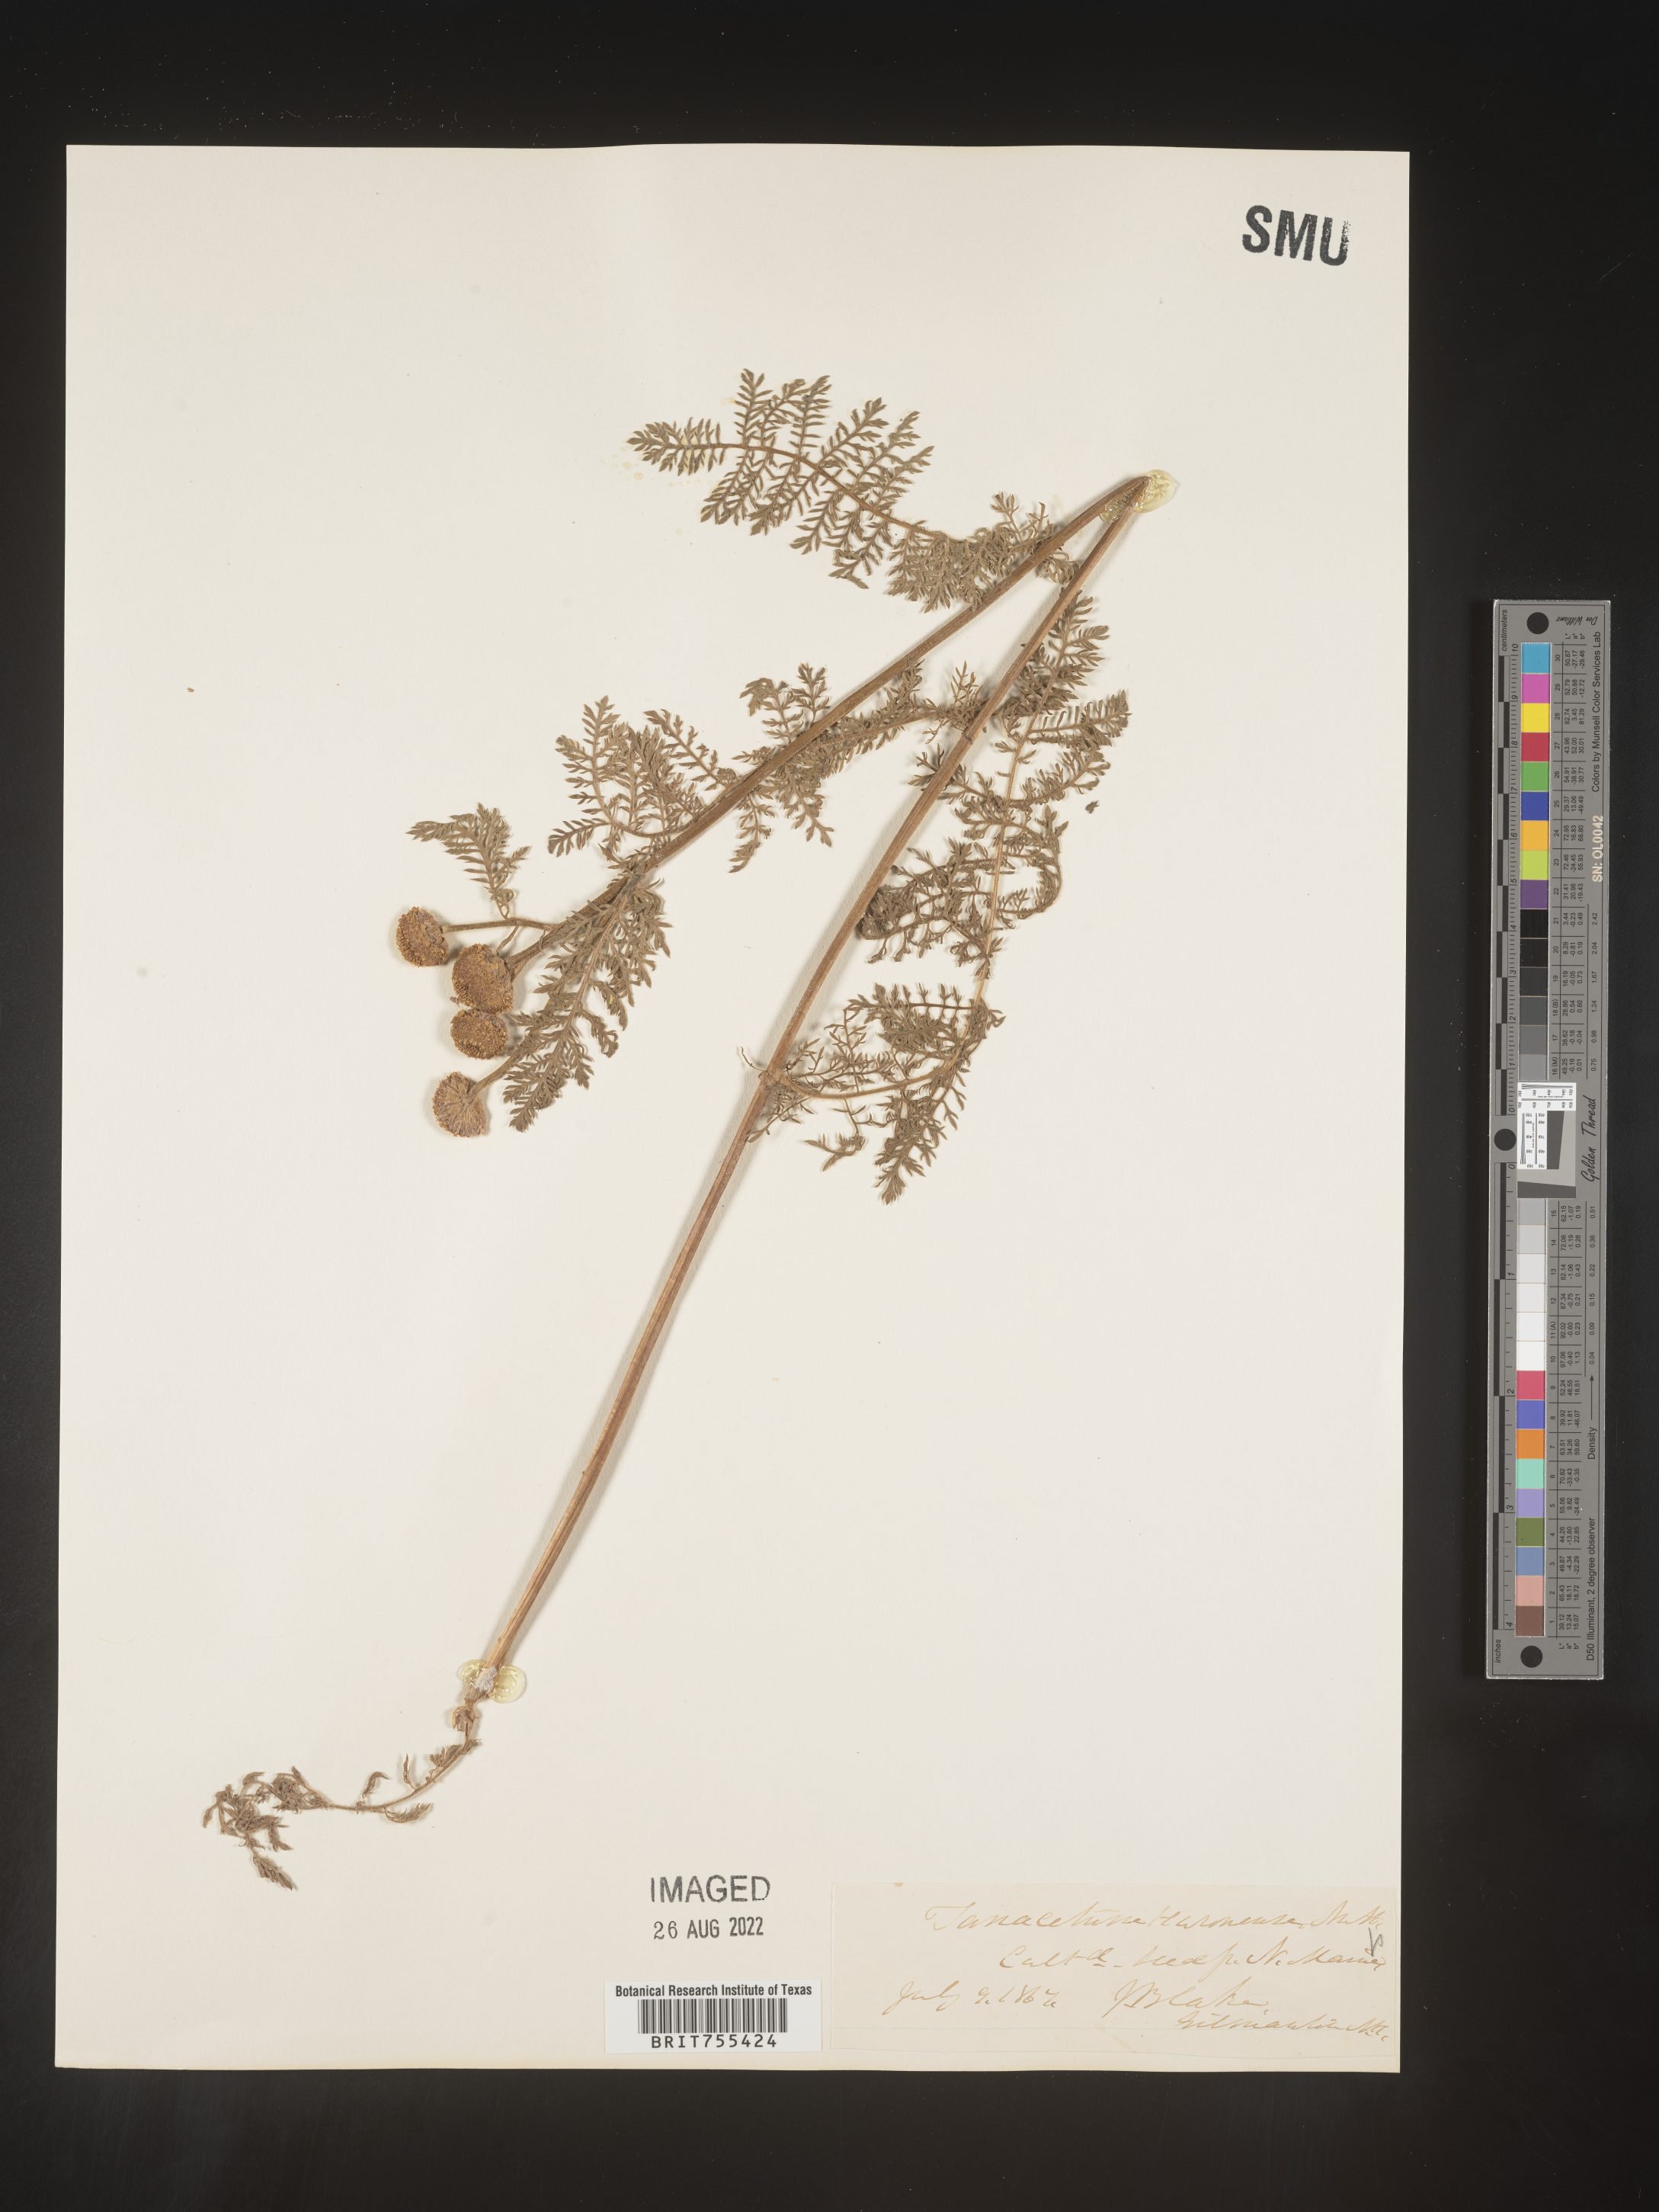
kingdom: Plantae
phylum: Tracheophyta
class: Magnoliopsida
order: Asterales
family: Asteraceae
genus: Tanacetum
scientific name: Tanacetum
